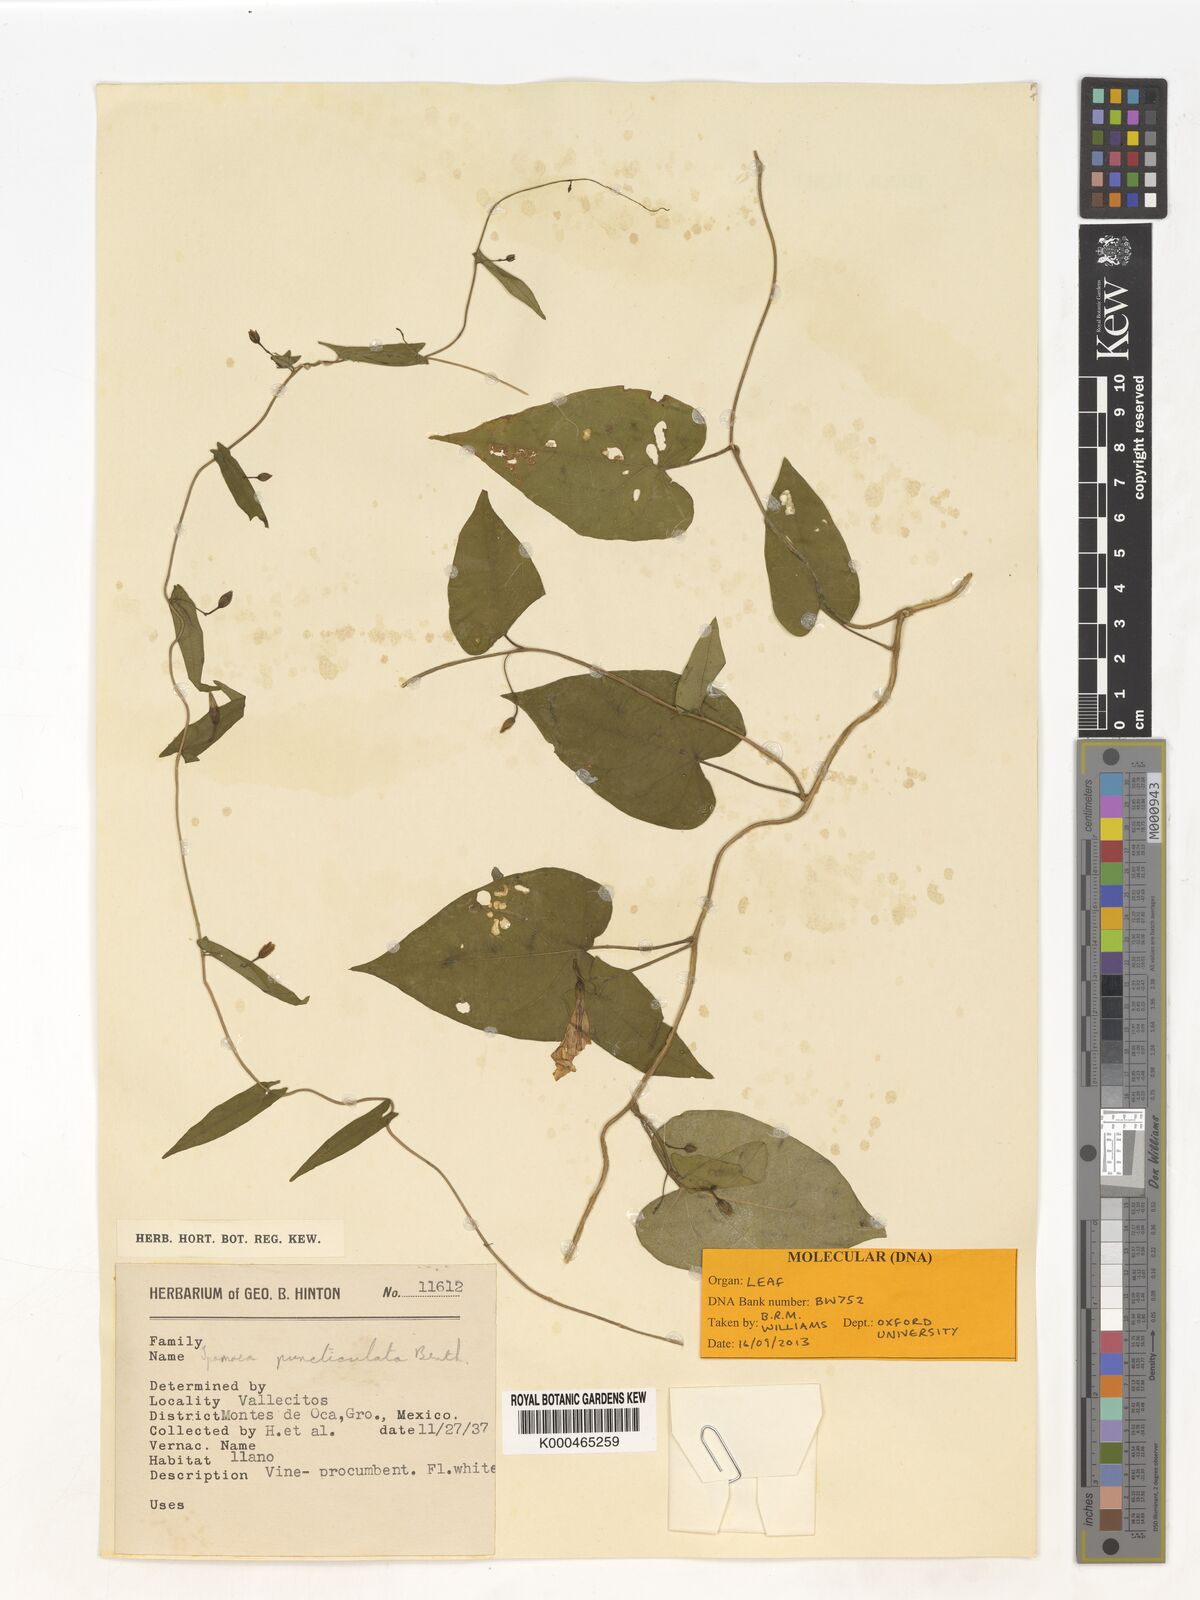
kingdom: Plantae
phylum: Tracheophyta
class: Magnoliopsida
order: Solanales
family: Convolvulaceae
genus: Ipomoea
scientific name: Ipomoea puncticulata
